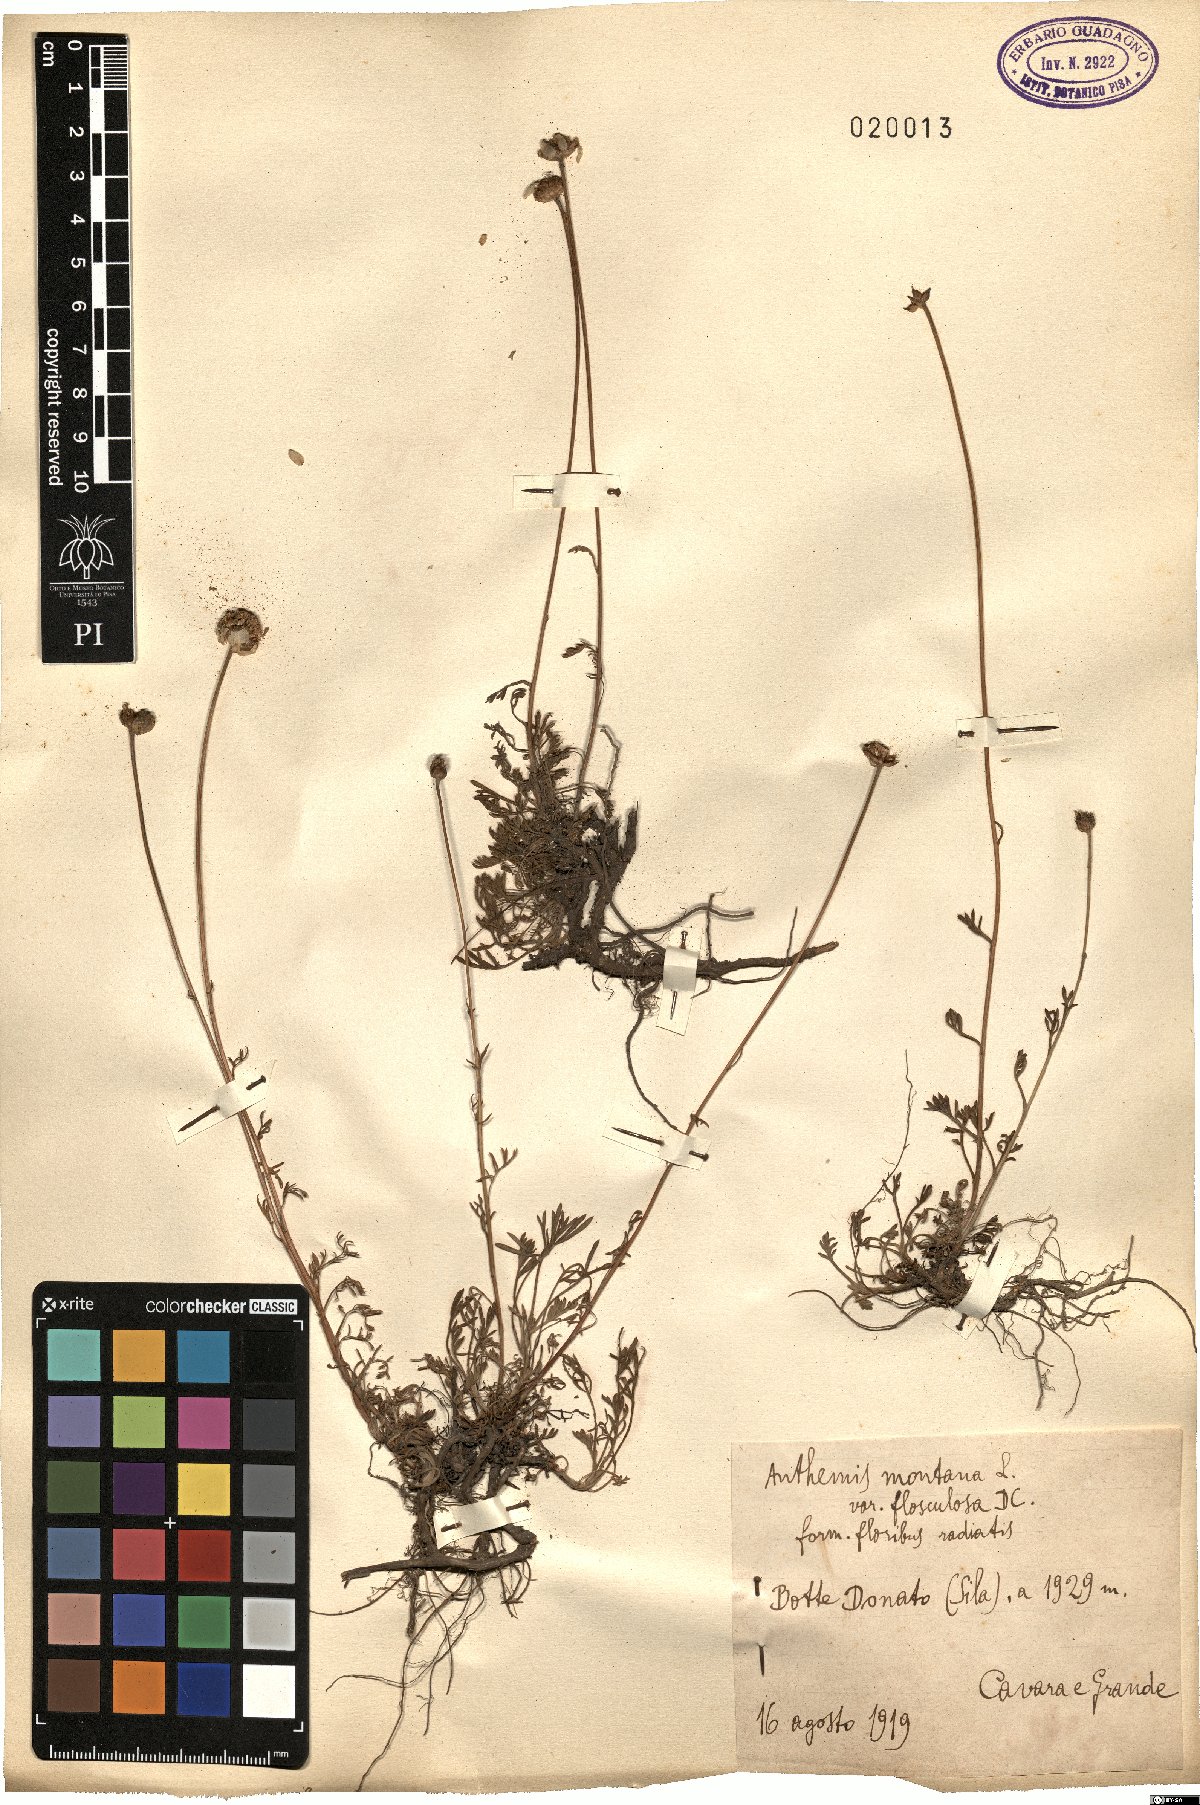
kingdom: Plantae
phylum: Tracheophyta
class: Magnoliopsida
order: Asterales
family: Asteraceae
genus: Anthemis
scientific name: Anthemis cretica
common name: Mountain dog-daisy
